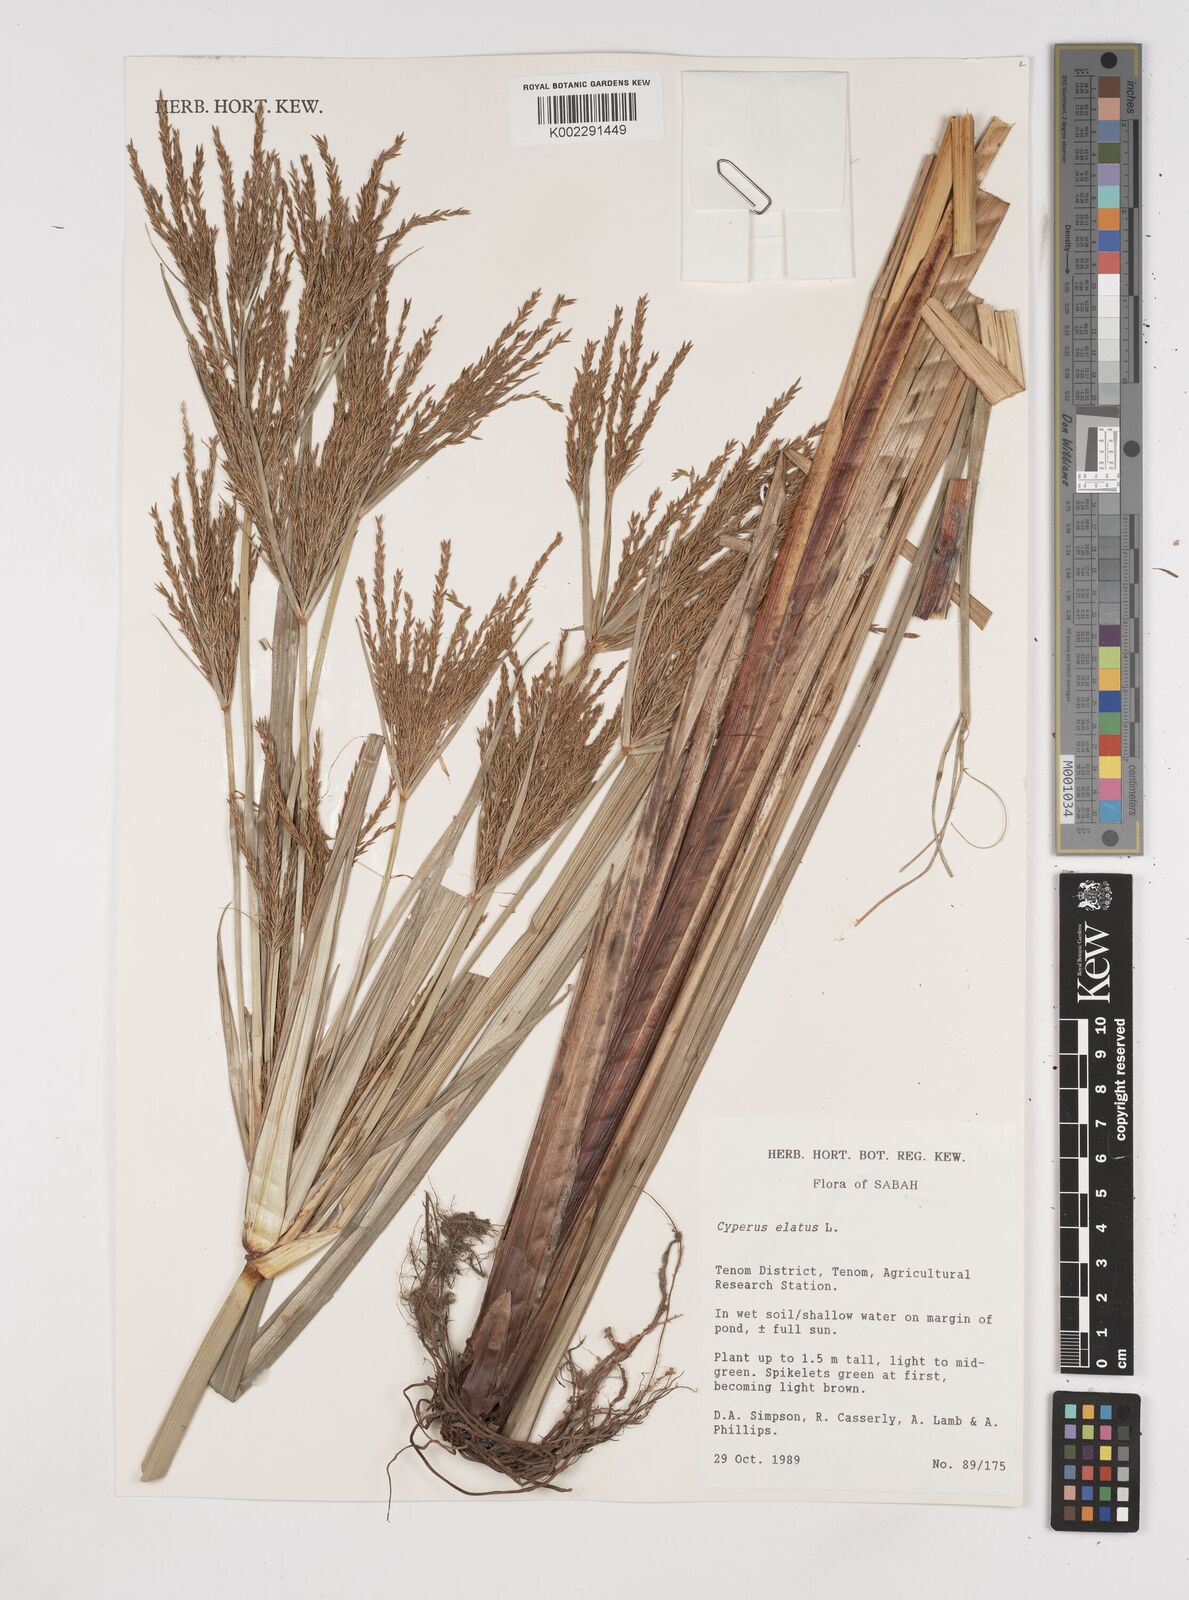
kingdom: Plantae
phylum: Tracheophyta
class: Liliopsida
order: Poales
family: Cyperaceae
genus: Cyperus
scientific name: Cyperus elatus
